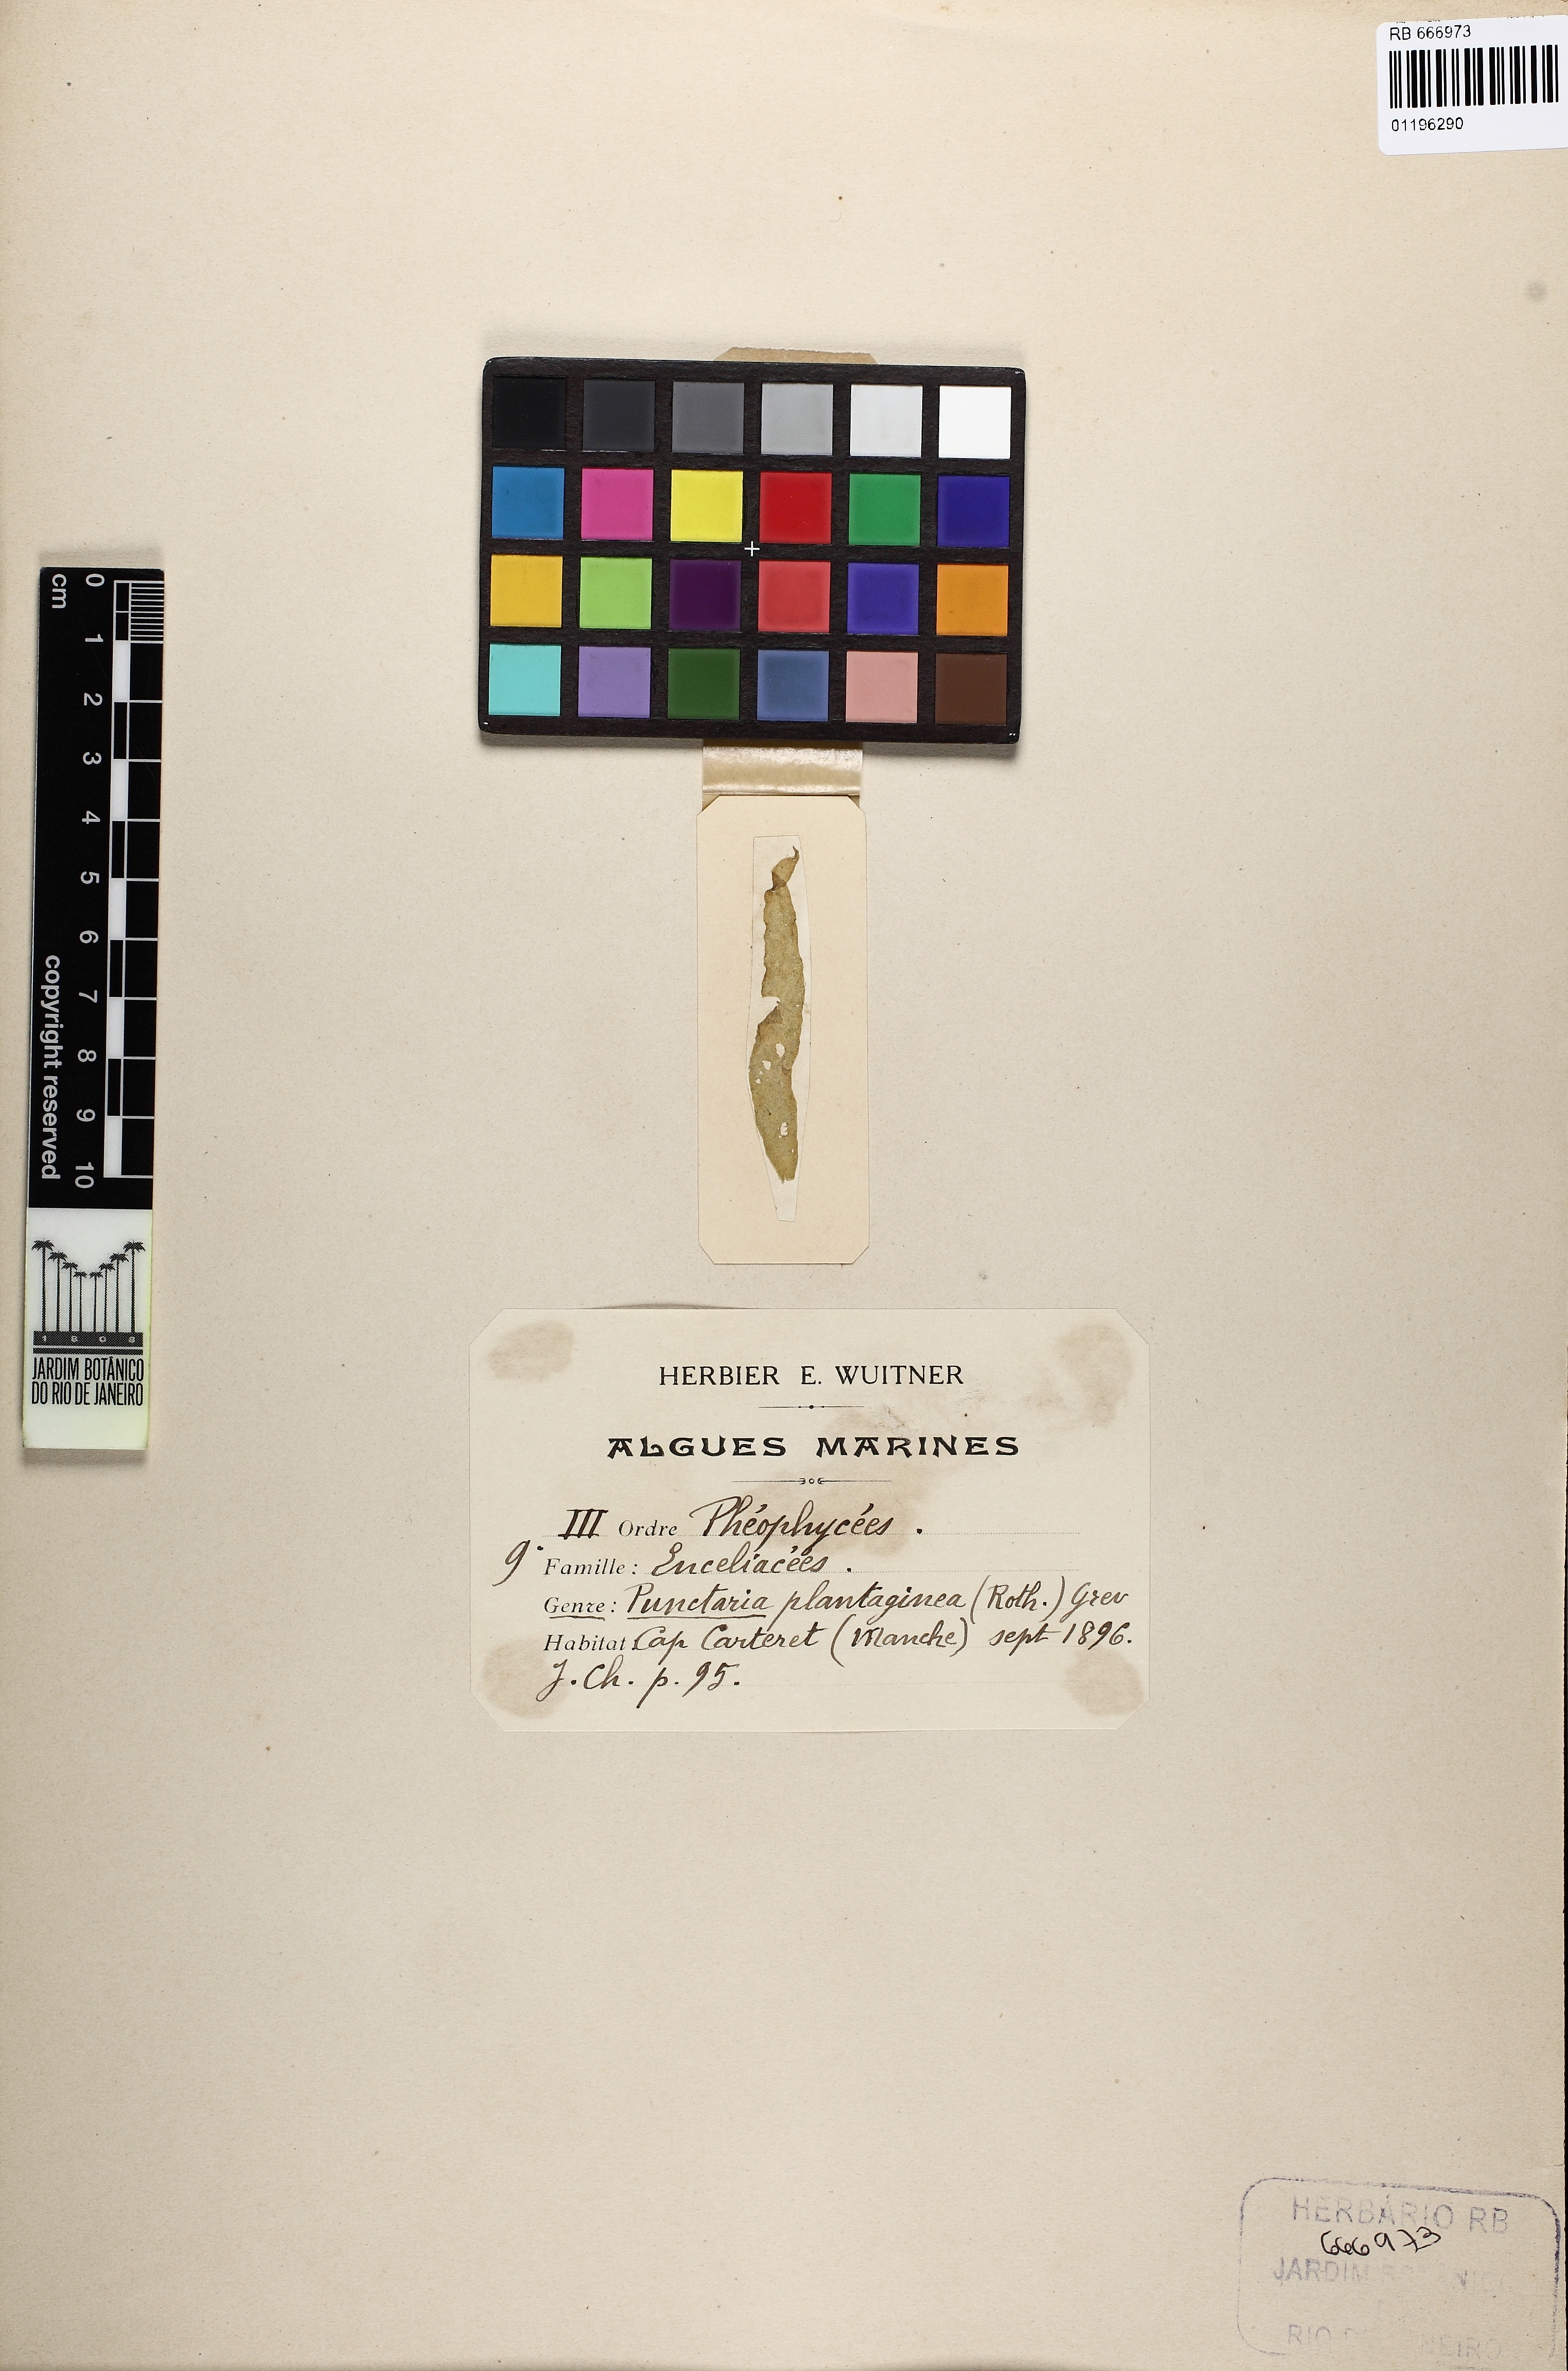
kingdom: Chromista
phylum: Ochrophyta
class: Phaeophyceae
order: Ectocarpales
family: Chordariaceae
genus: Punctaria
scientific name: Punctaria plantaginea
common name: Ribbon weed
